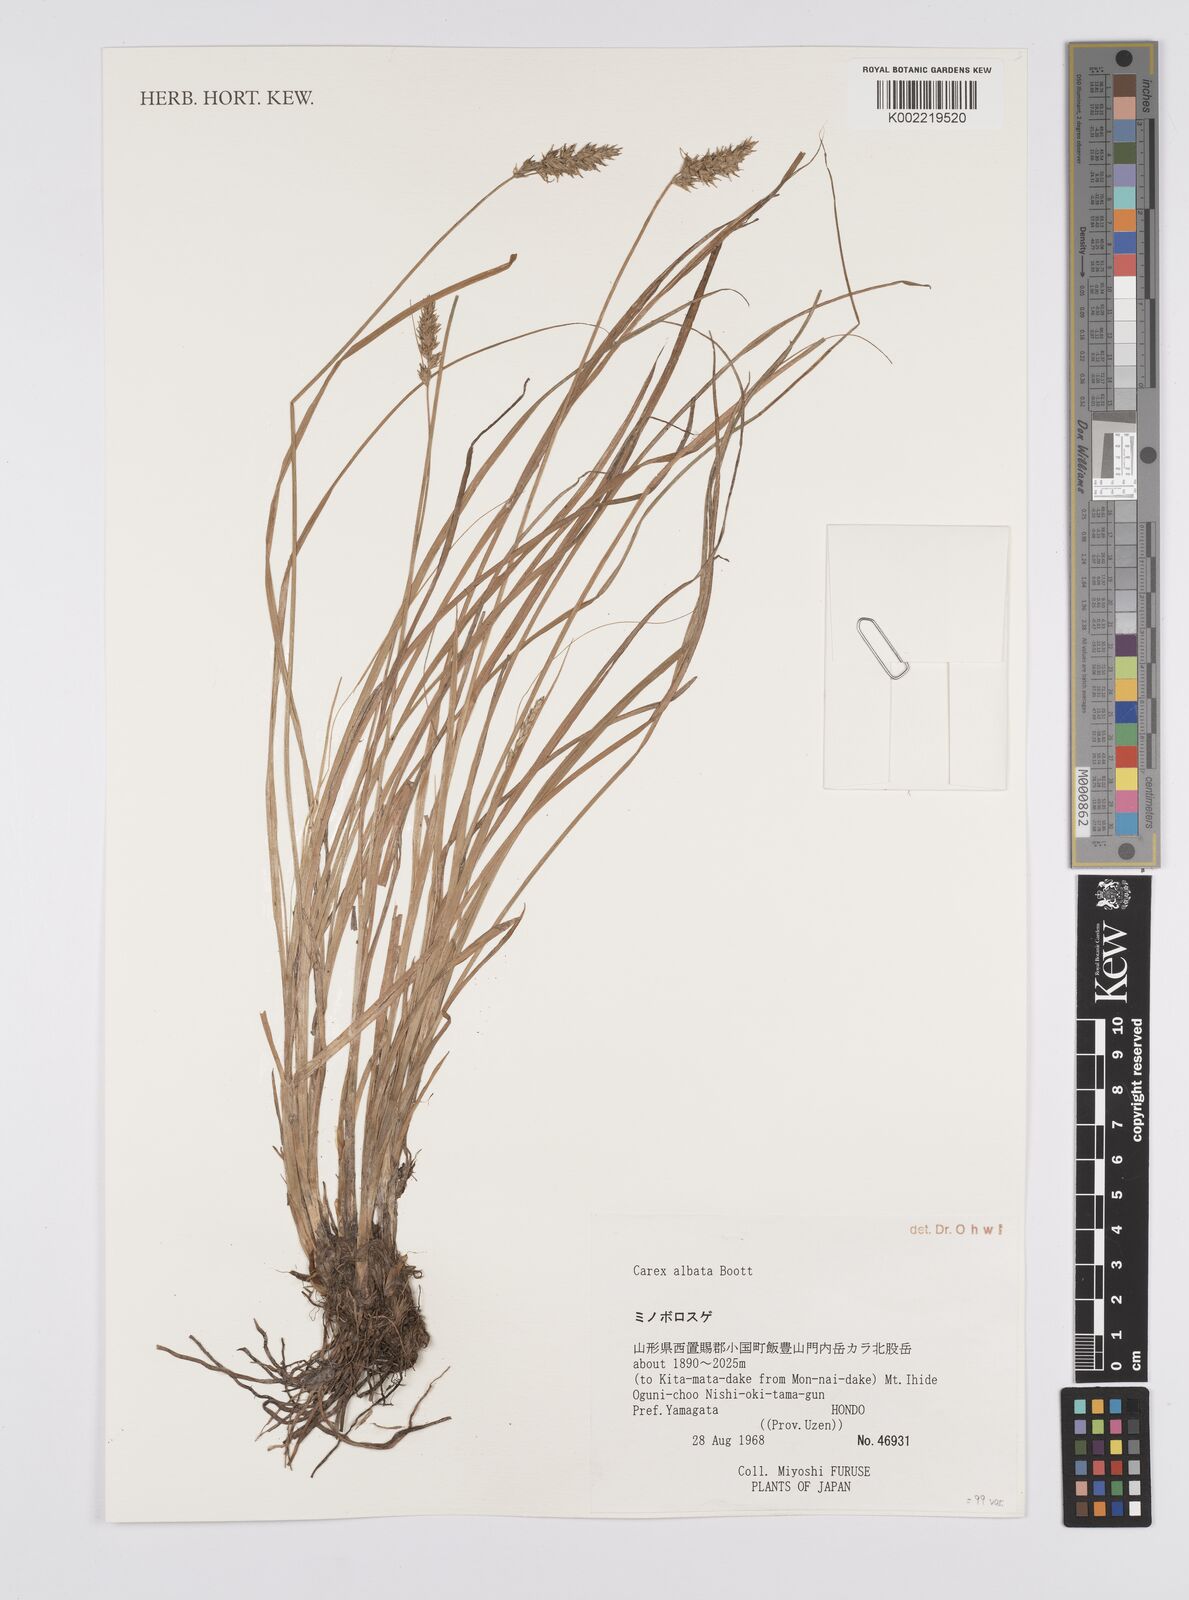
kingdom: Plantae
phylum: Tracheophyta
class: Liliopsida
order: Poales
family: Cyperaceae
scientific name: Cyperaceae
